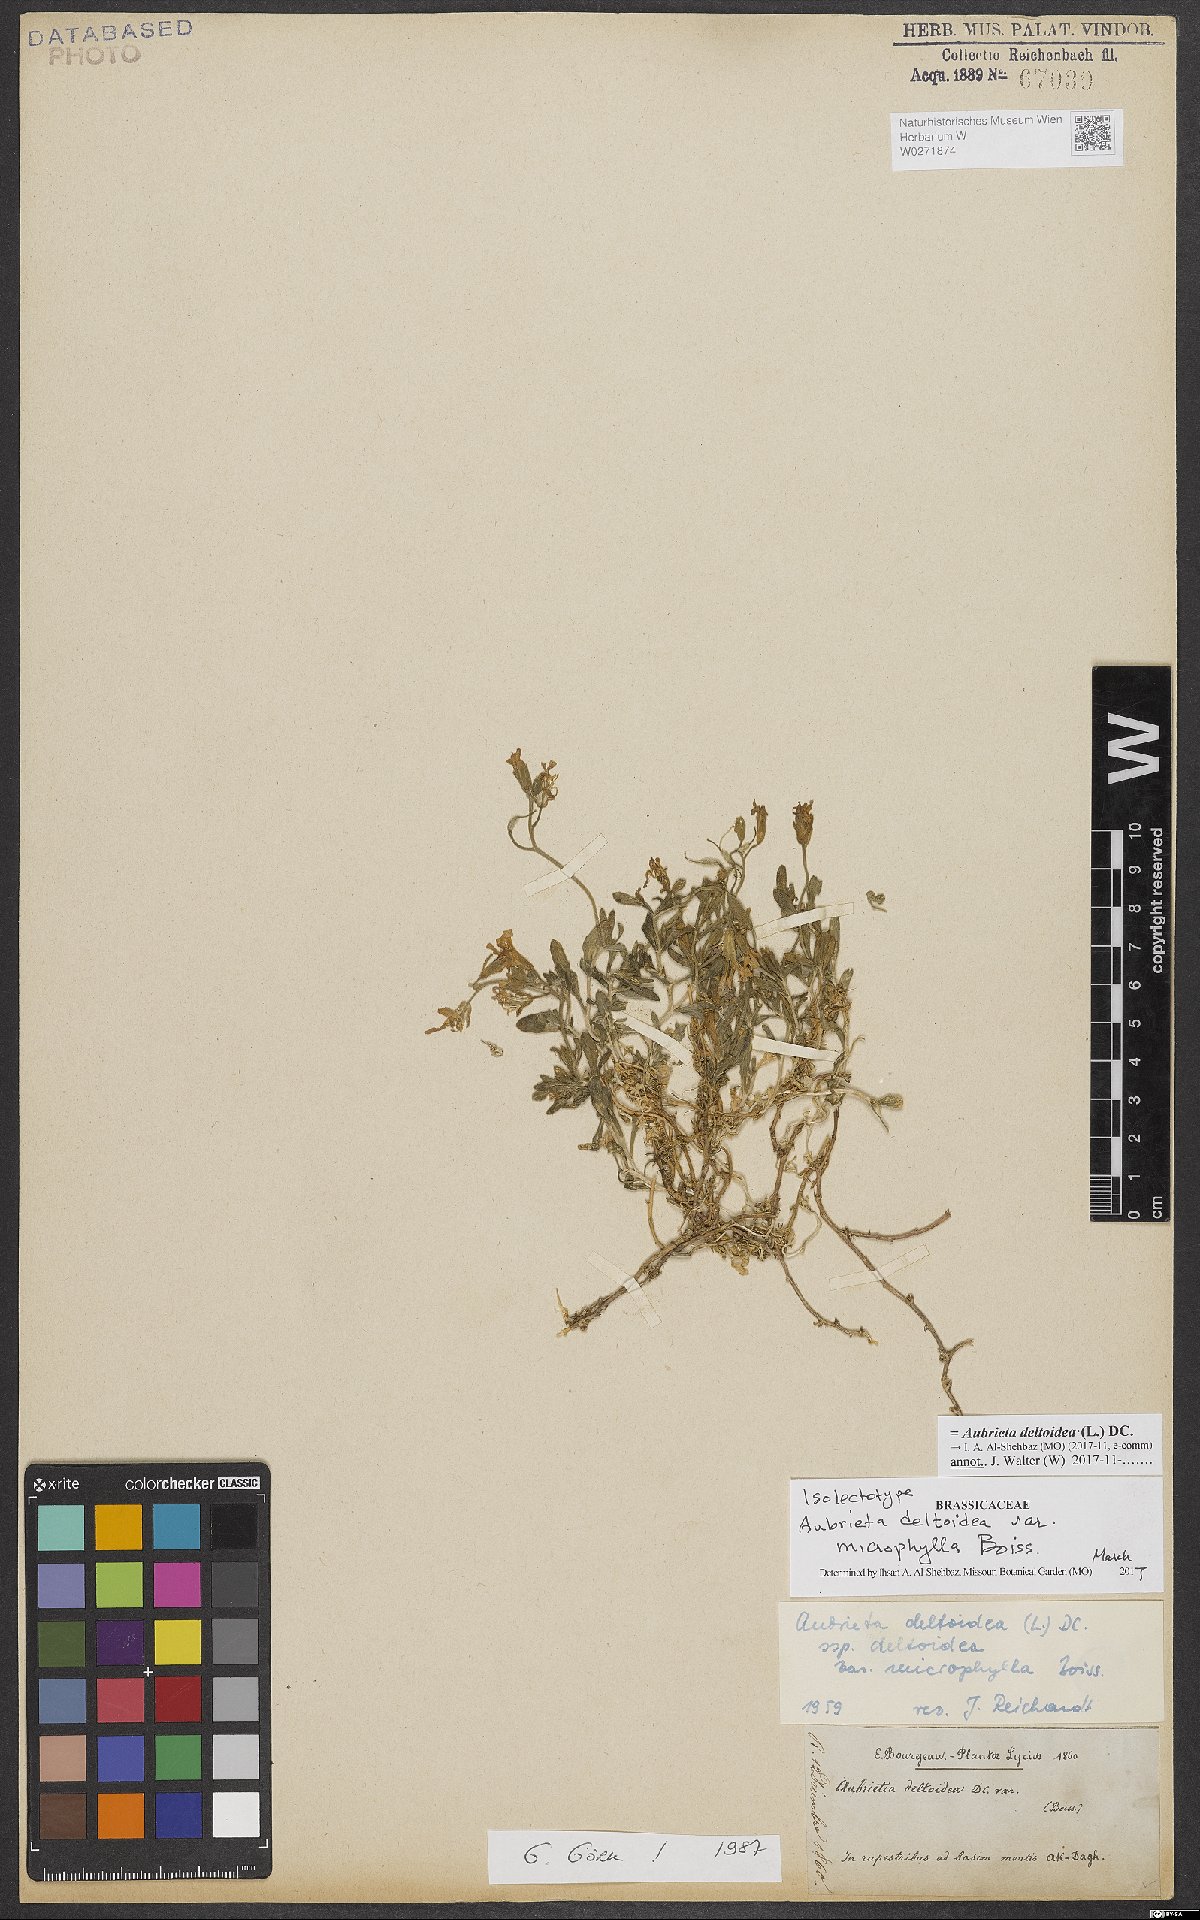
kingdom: Plantae
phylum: Tracheophyta
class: Magnoliopsida
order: Brassicales
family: Brassicaceae
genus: Aubrieta
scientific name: Aubrieta deltoidea
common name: Aubretia
